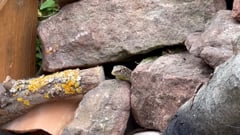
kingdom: Animalia
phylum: Chordata
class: Squamata
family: Lacertidae
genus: Lacerta
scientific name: Lacerta agilis
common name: Sand lizard
